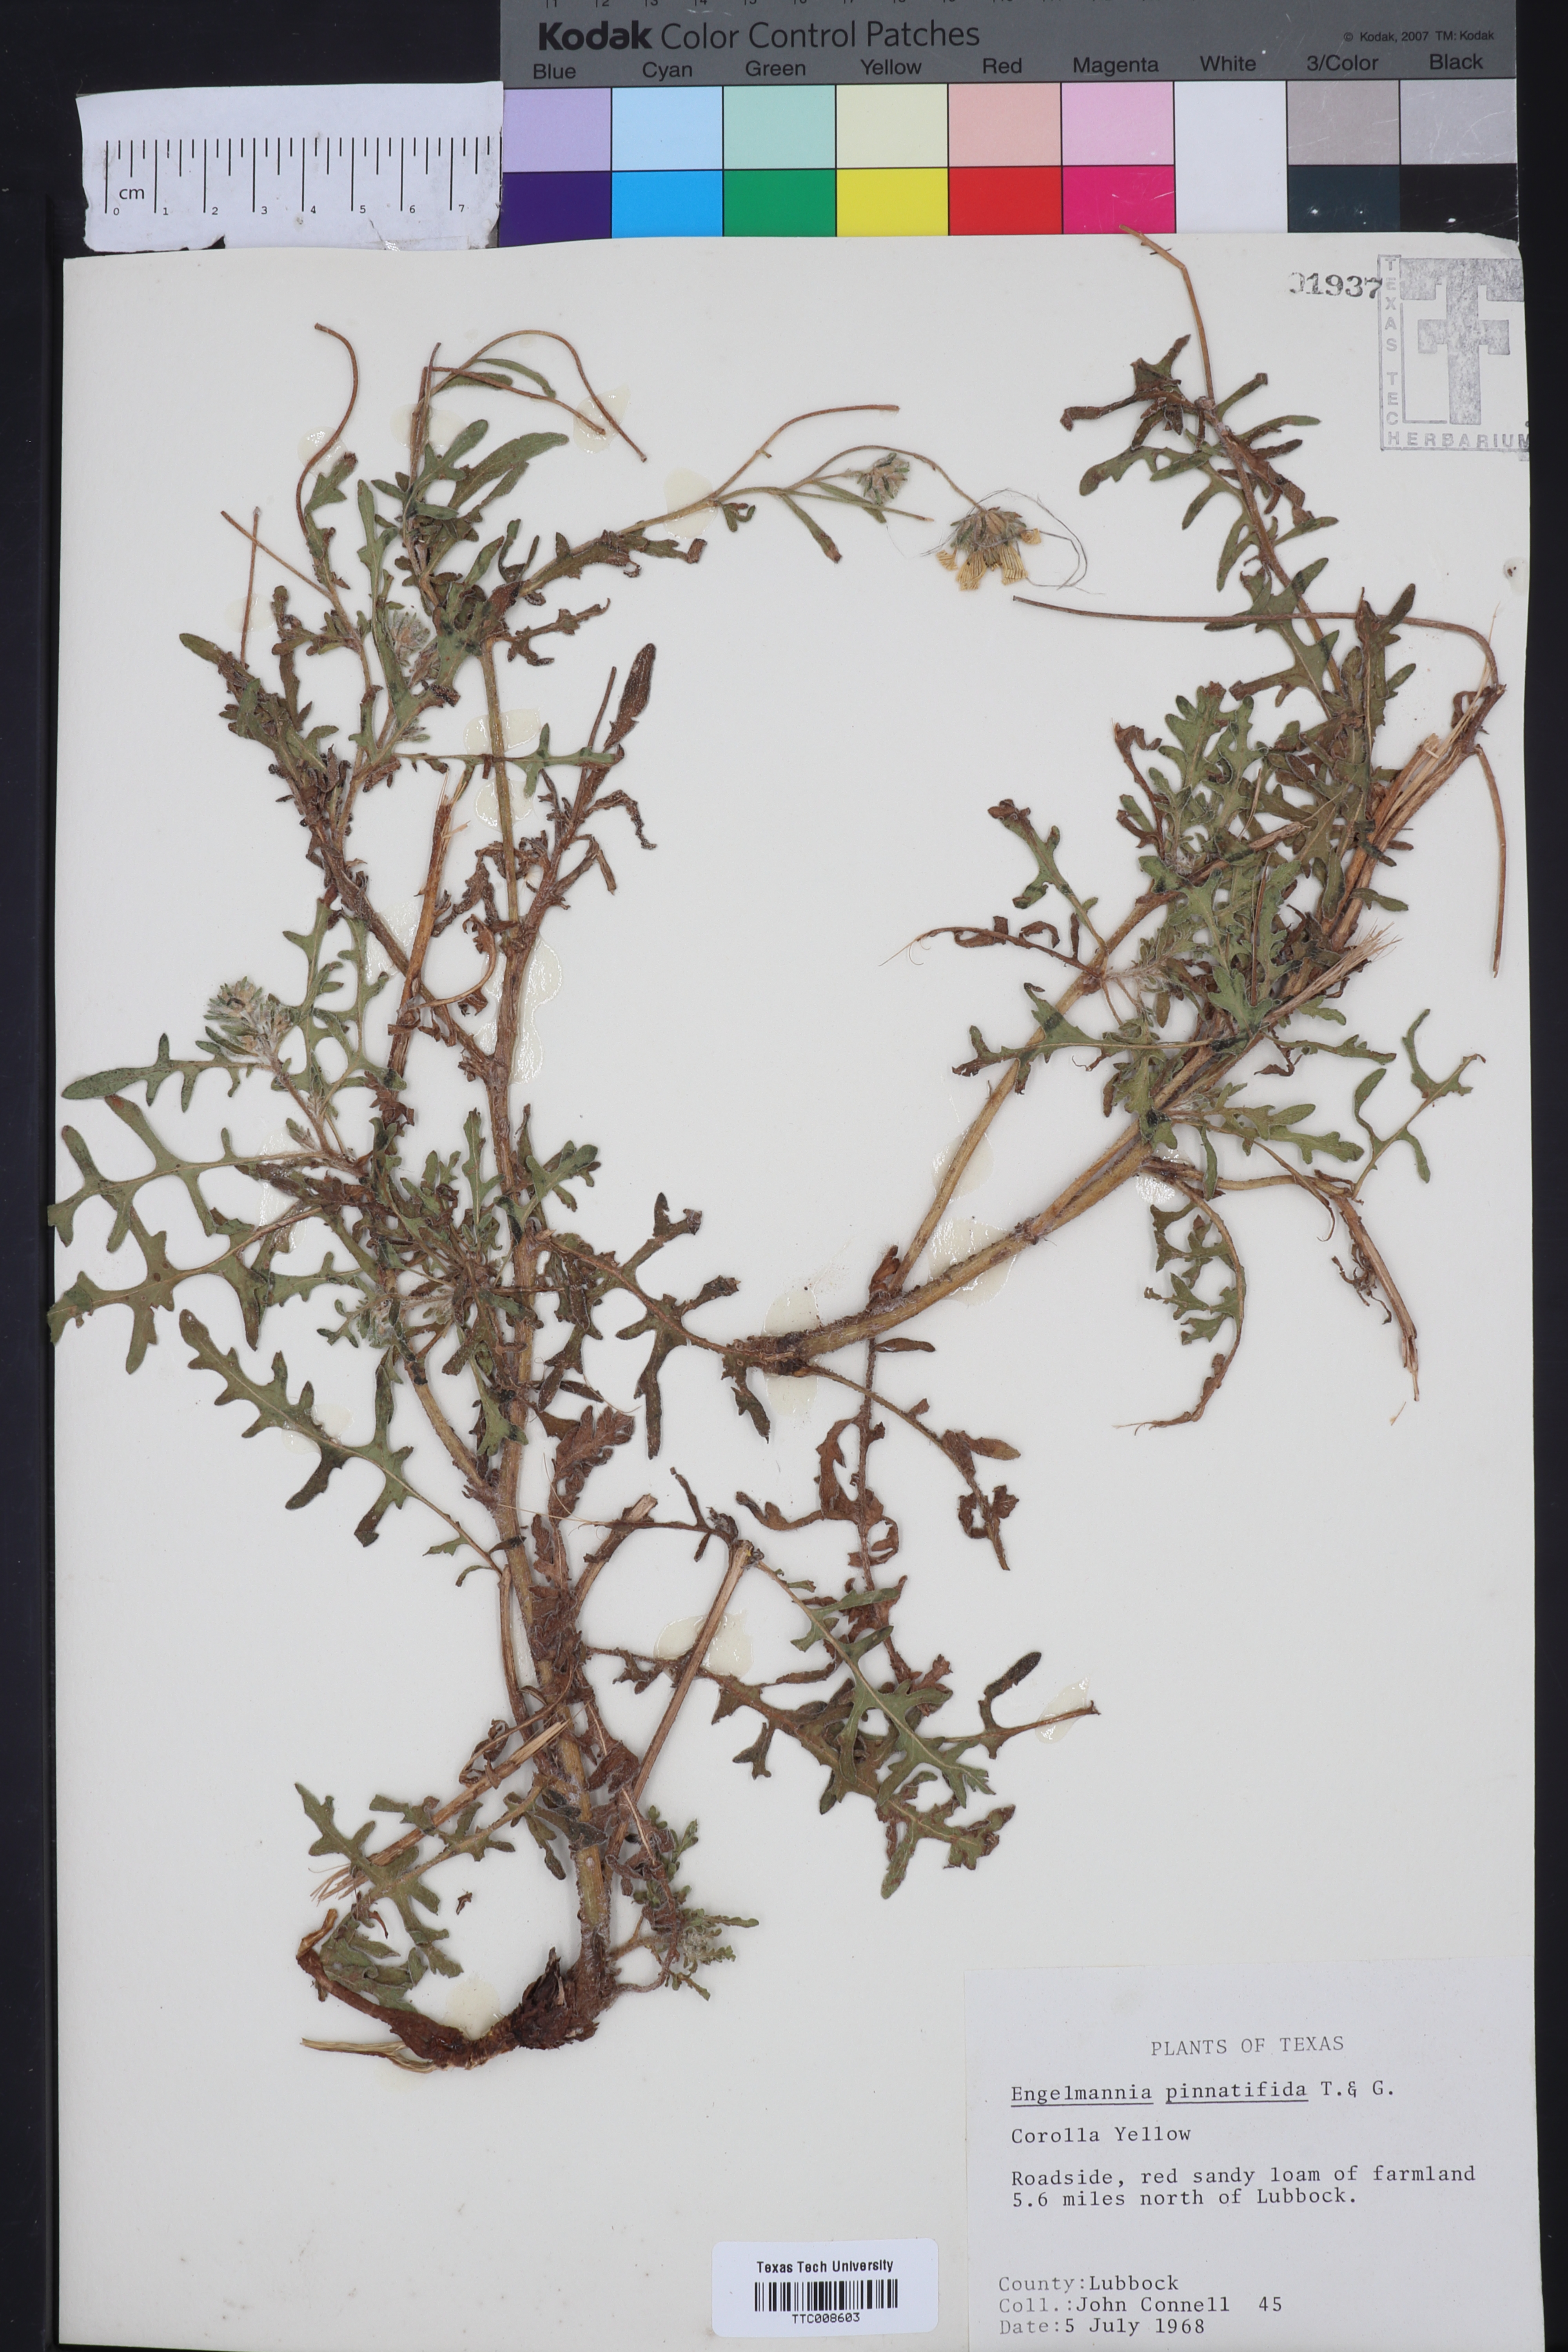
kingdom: Plantae
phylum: Tracheophyta
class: Magnoliopsida
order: Asterales
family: Asteraceae
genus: Engelmannia
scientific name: Engelmannia peristenia
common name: Engelmann's daisy
